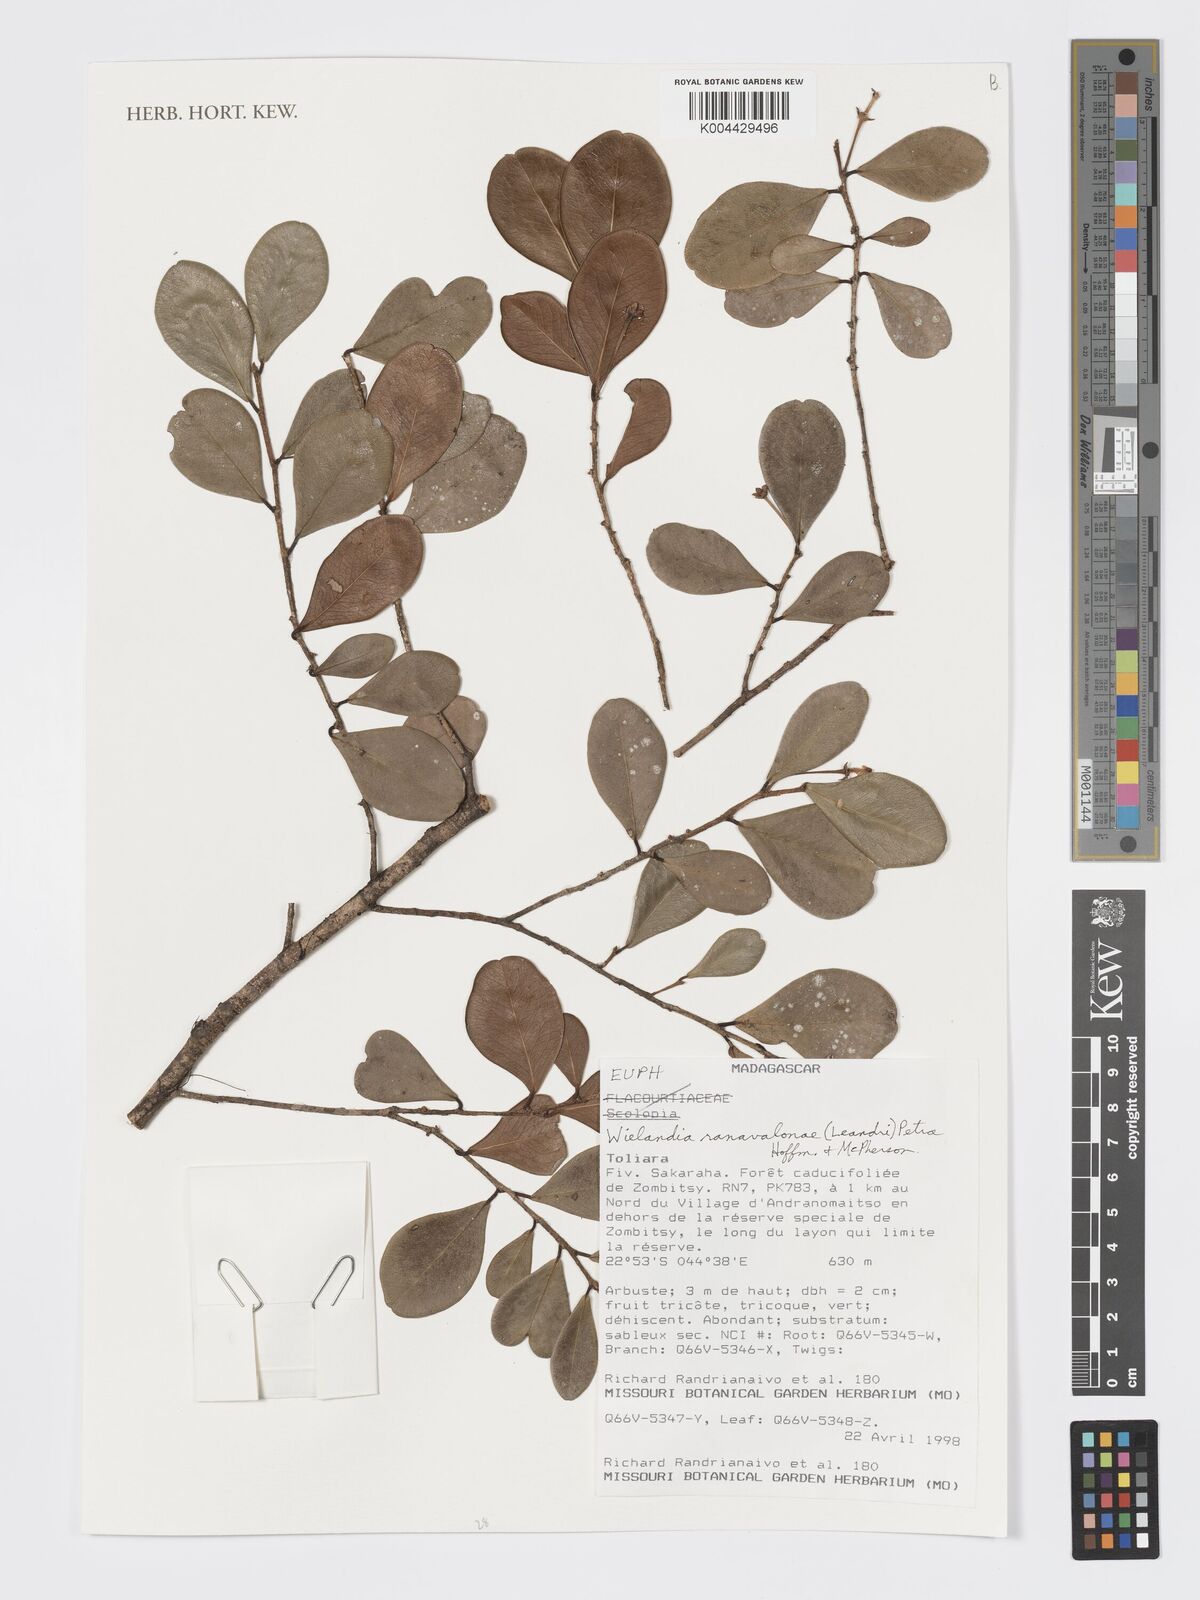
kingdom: Plantae
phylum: Tracheophyta
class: Magnoliopsida
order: Malpighiales
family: Phyllanthaceae
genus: Wielandia
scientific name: Wielandia ranavalonae
